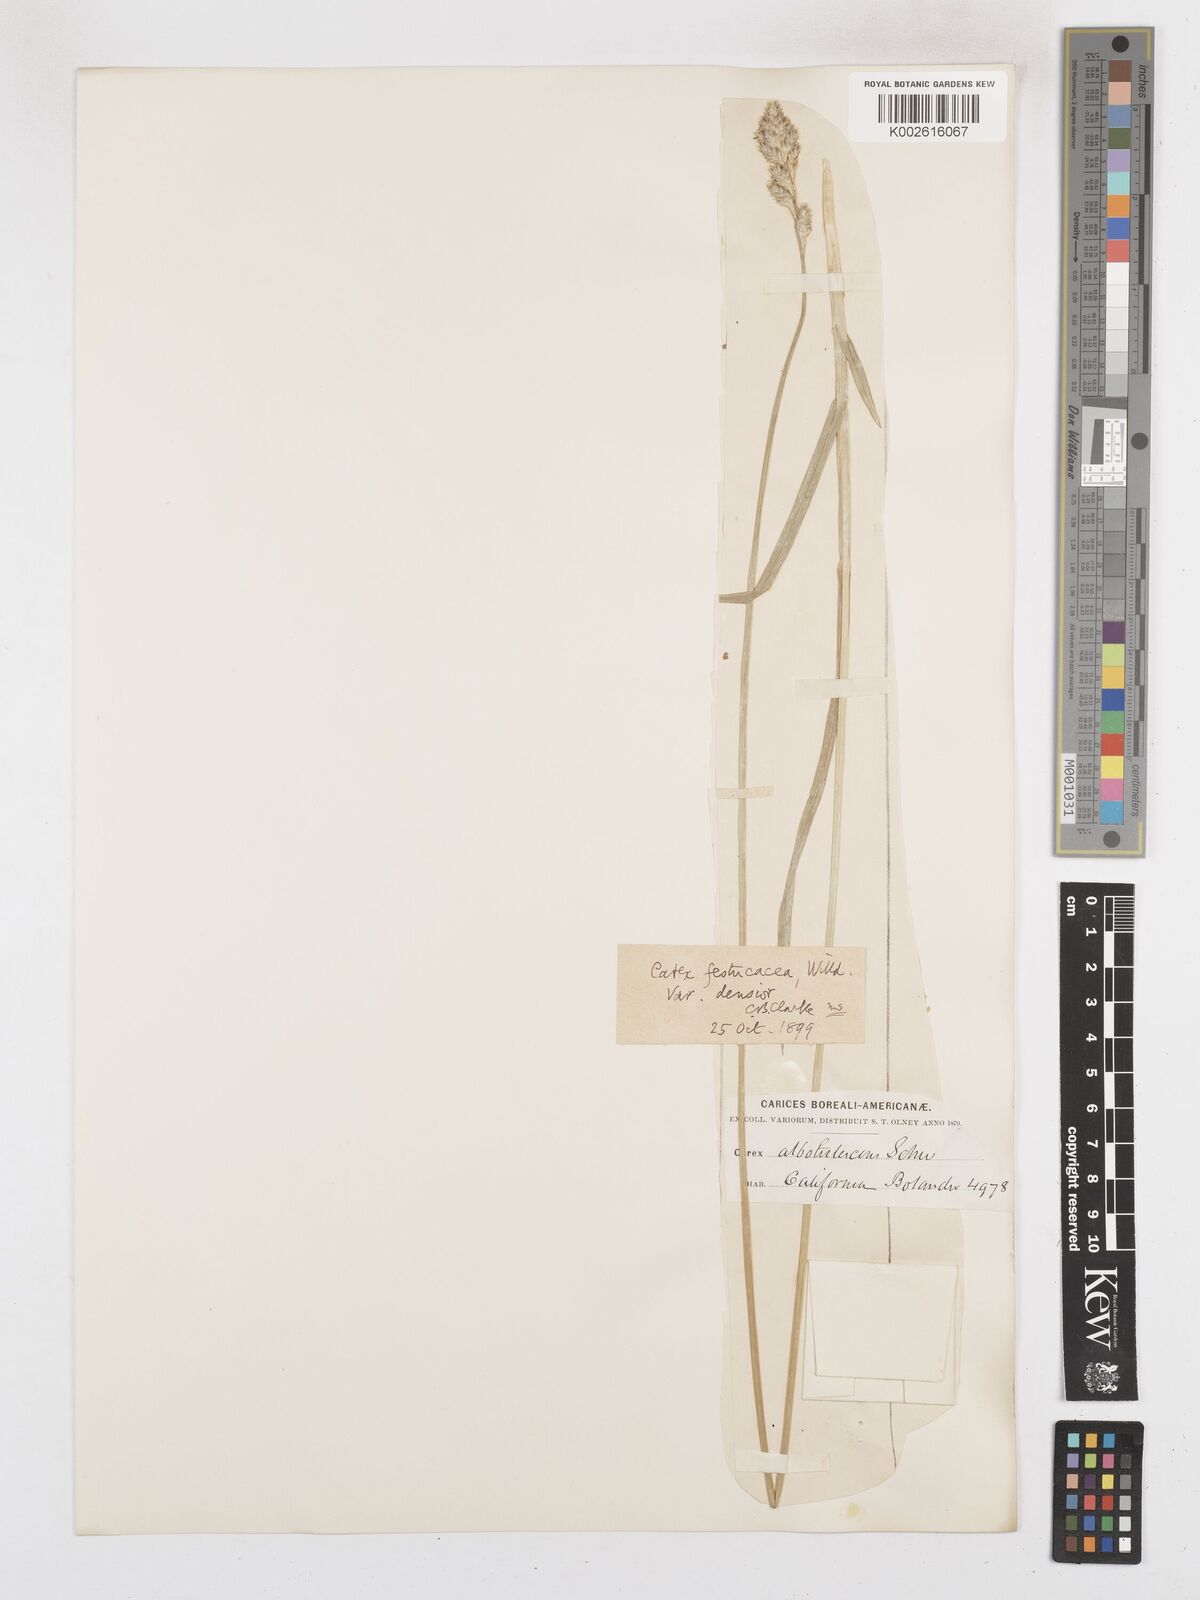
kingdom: Plantae
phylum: Tracheophyta
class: Liliopsida
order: Poales
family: Cyperaceae
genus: Carex
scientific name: Carex festucacea
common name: Fescue oval sedge
